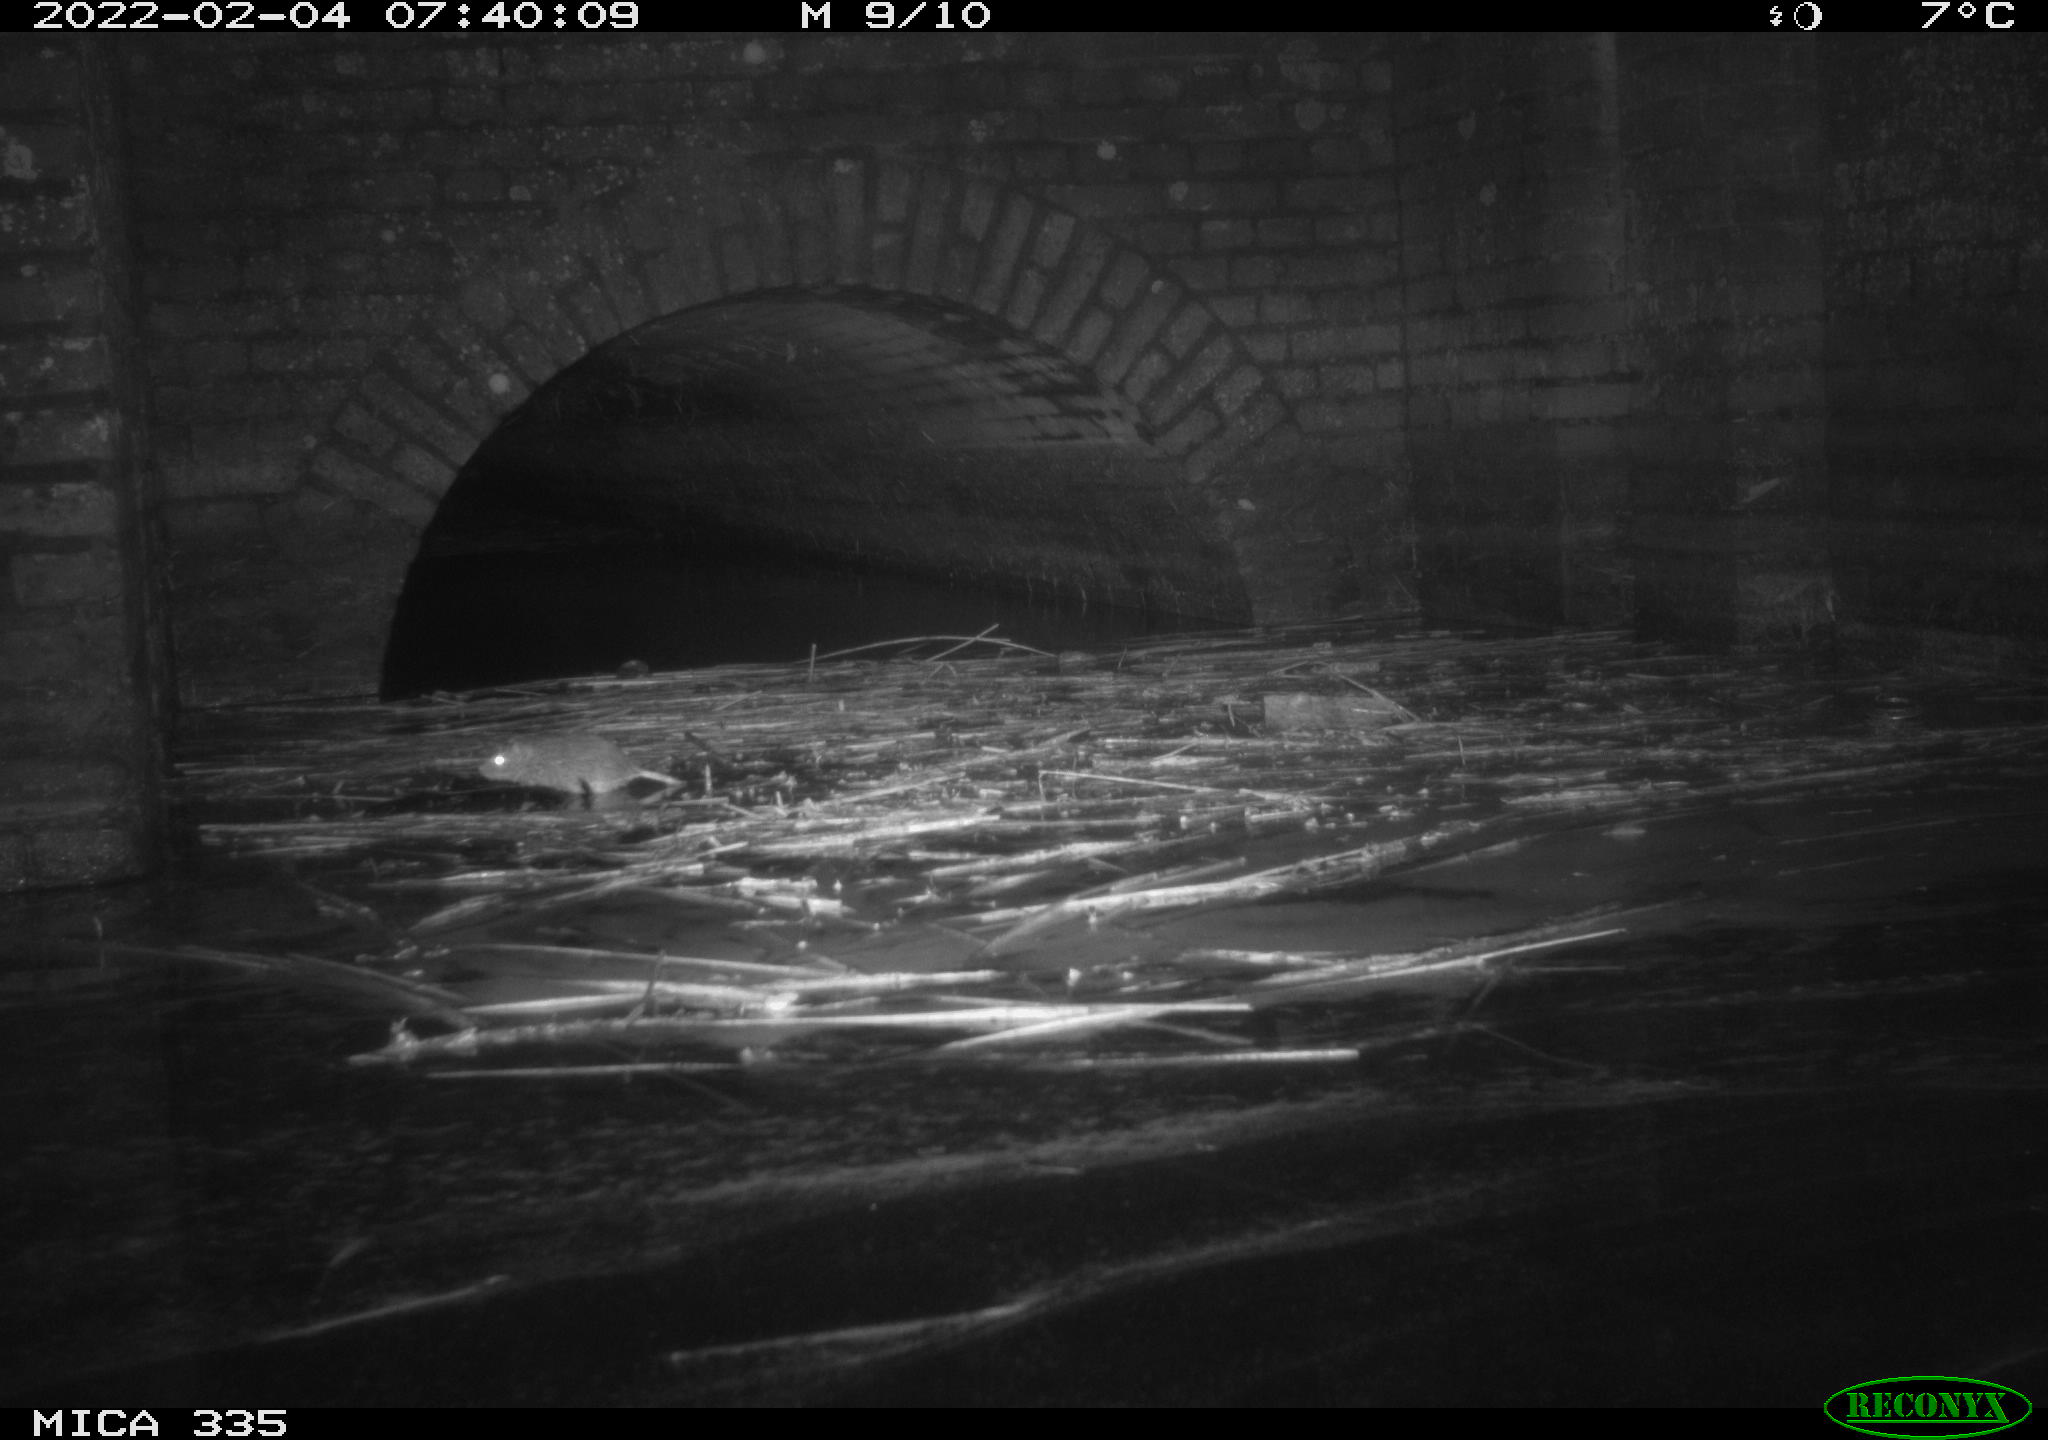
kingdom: Animalia
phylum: Chordata
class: Mammalia
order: Rodentia
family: Muridae
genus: Rattus
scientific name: Rattus norvegicus
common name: Brown rat
